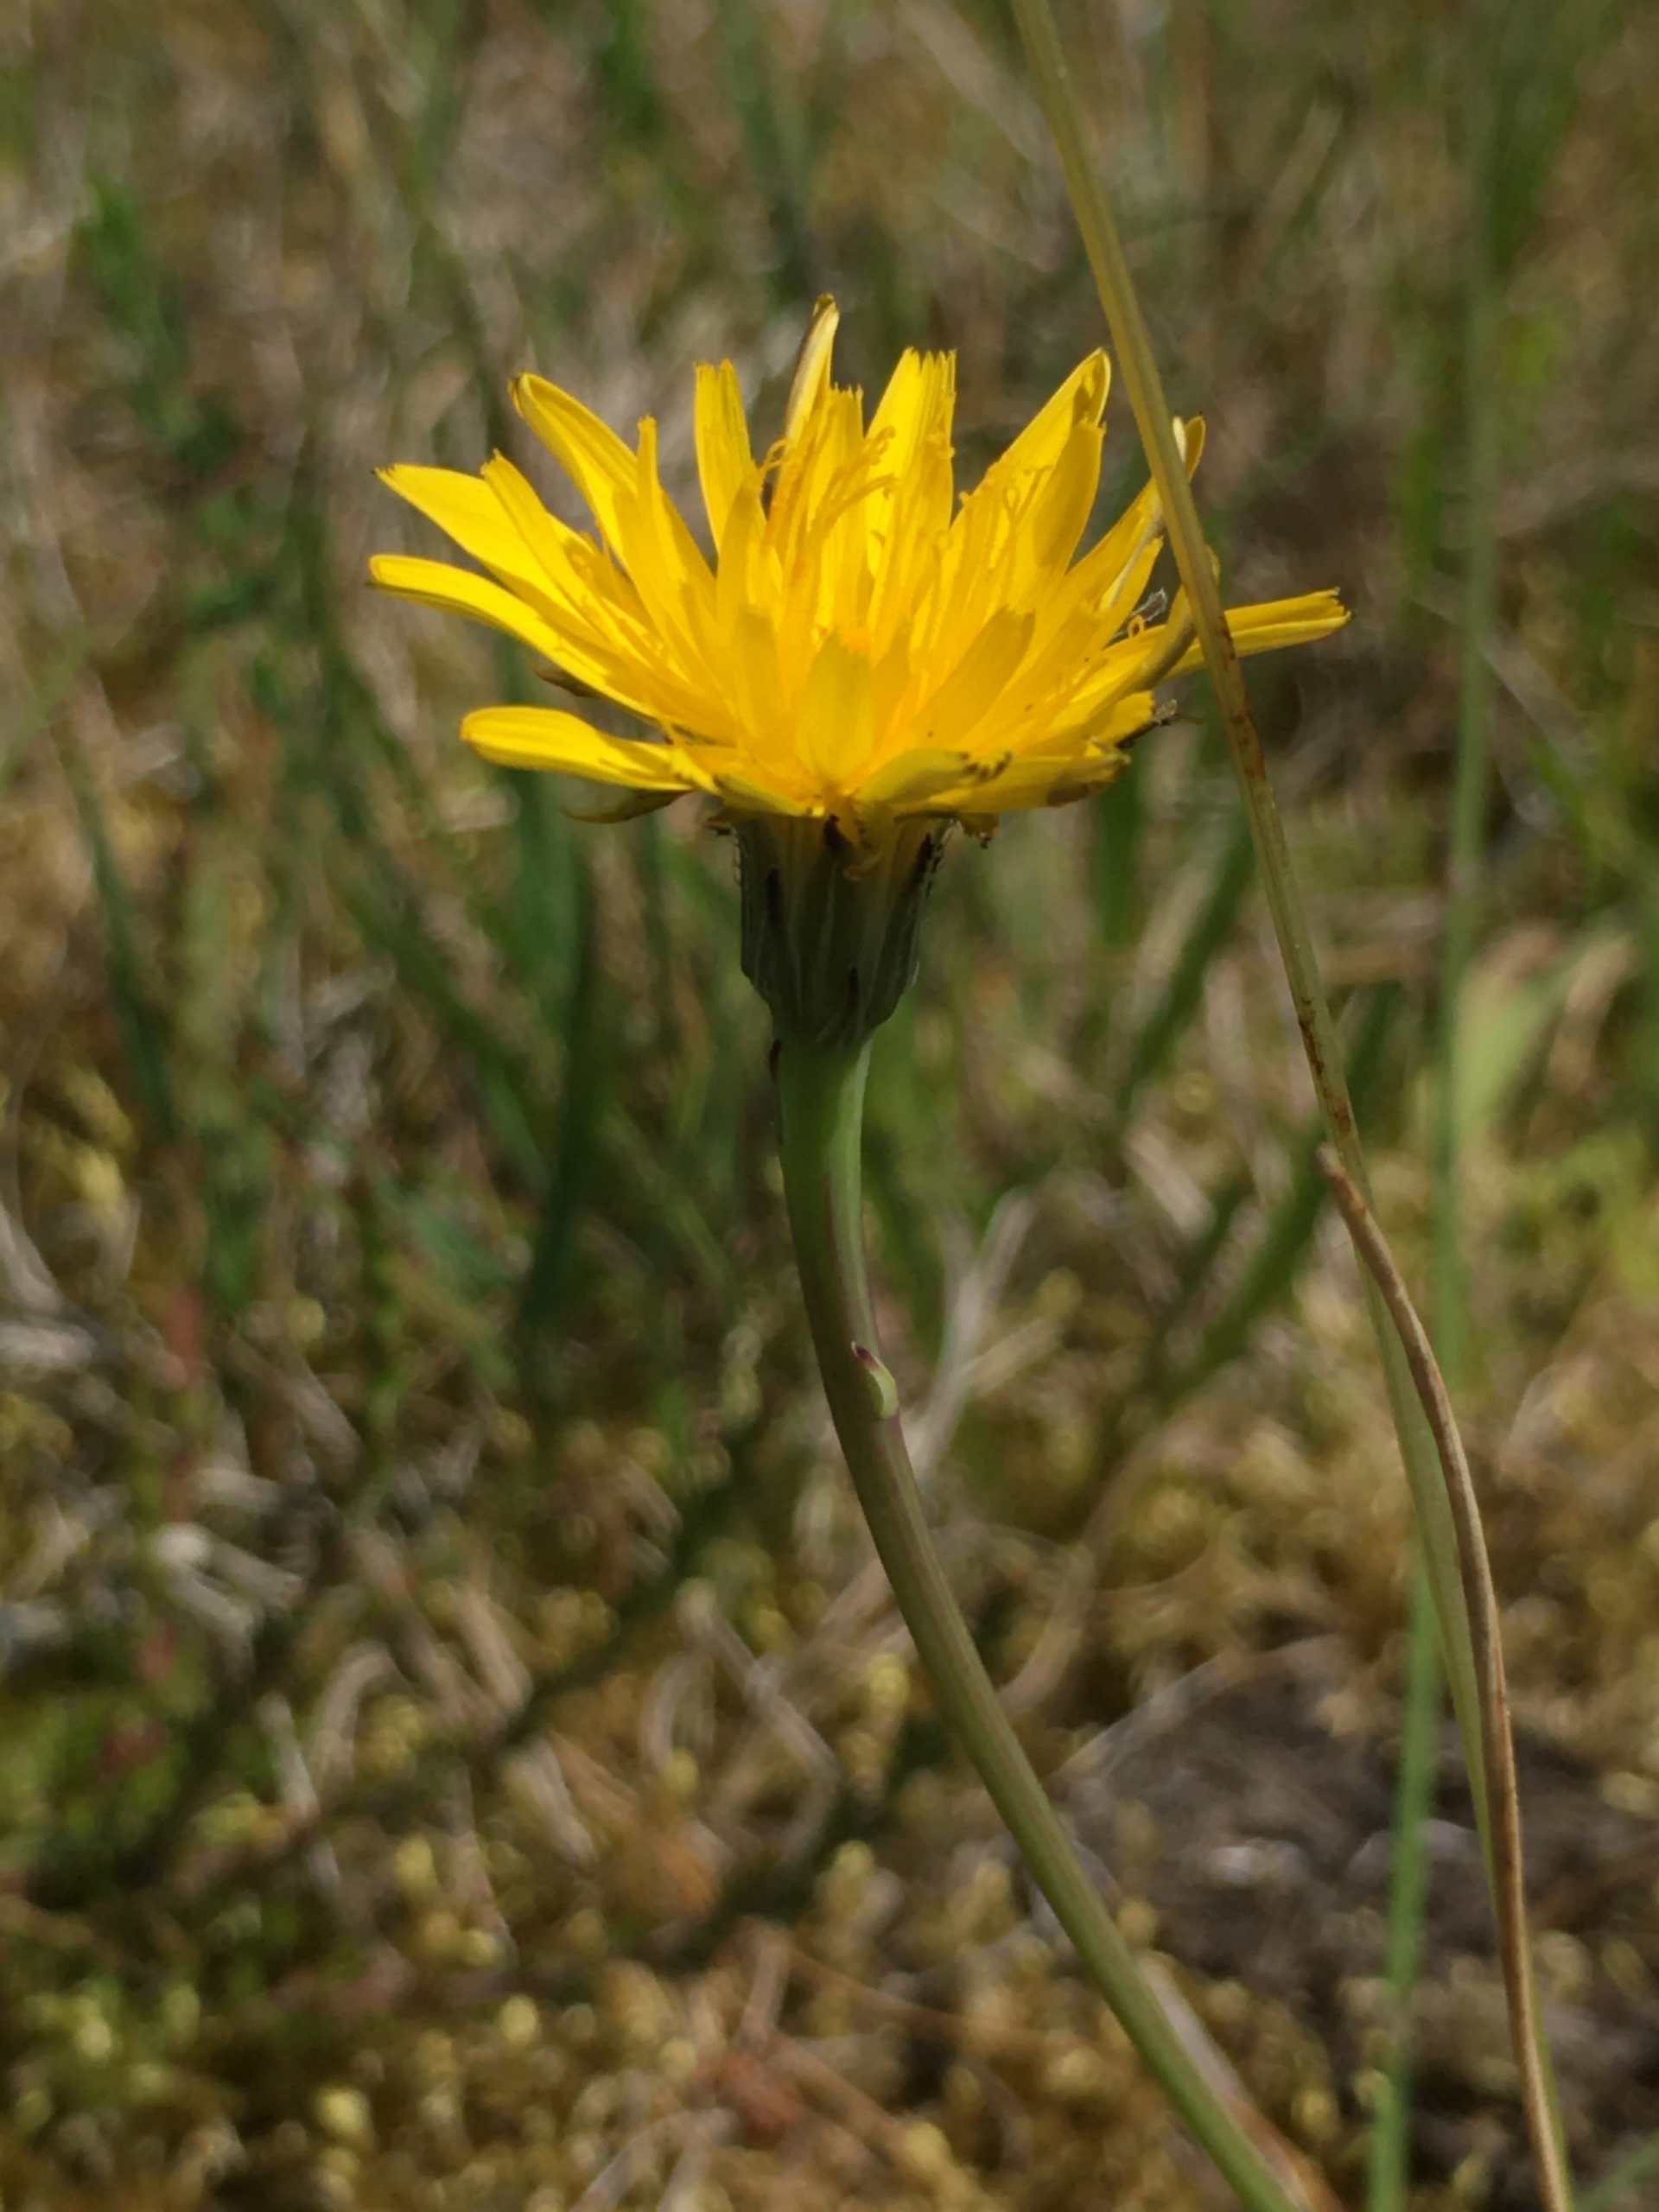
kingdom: Plantae
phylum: Tracheophyta
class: Magnoliopsida
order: Asterales
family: Asteraceae
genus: Hypochaeris
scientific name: Hypochaeris radicata
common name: Almindelig kongepen
